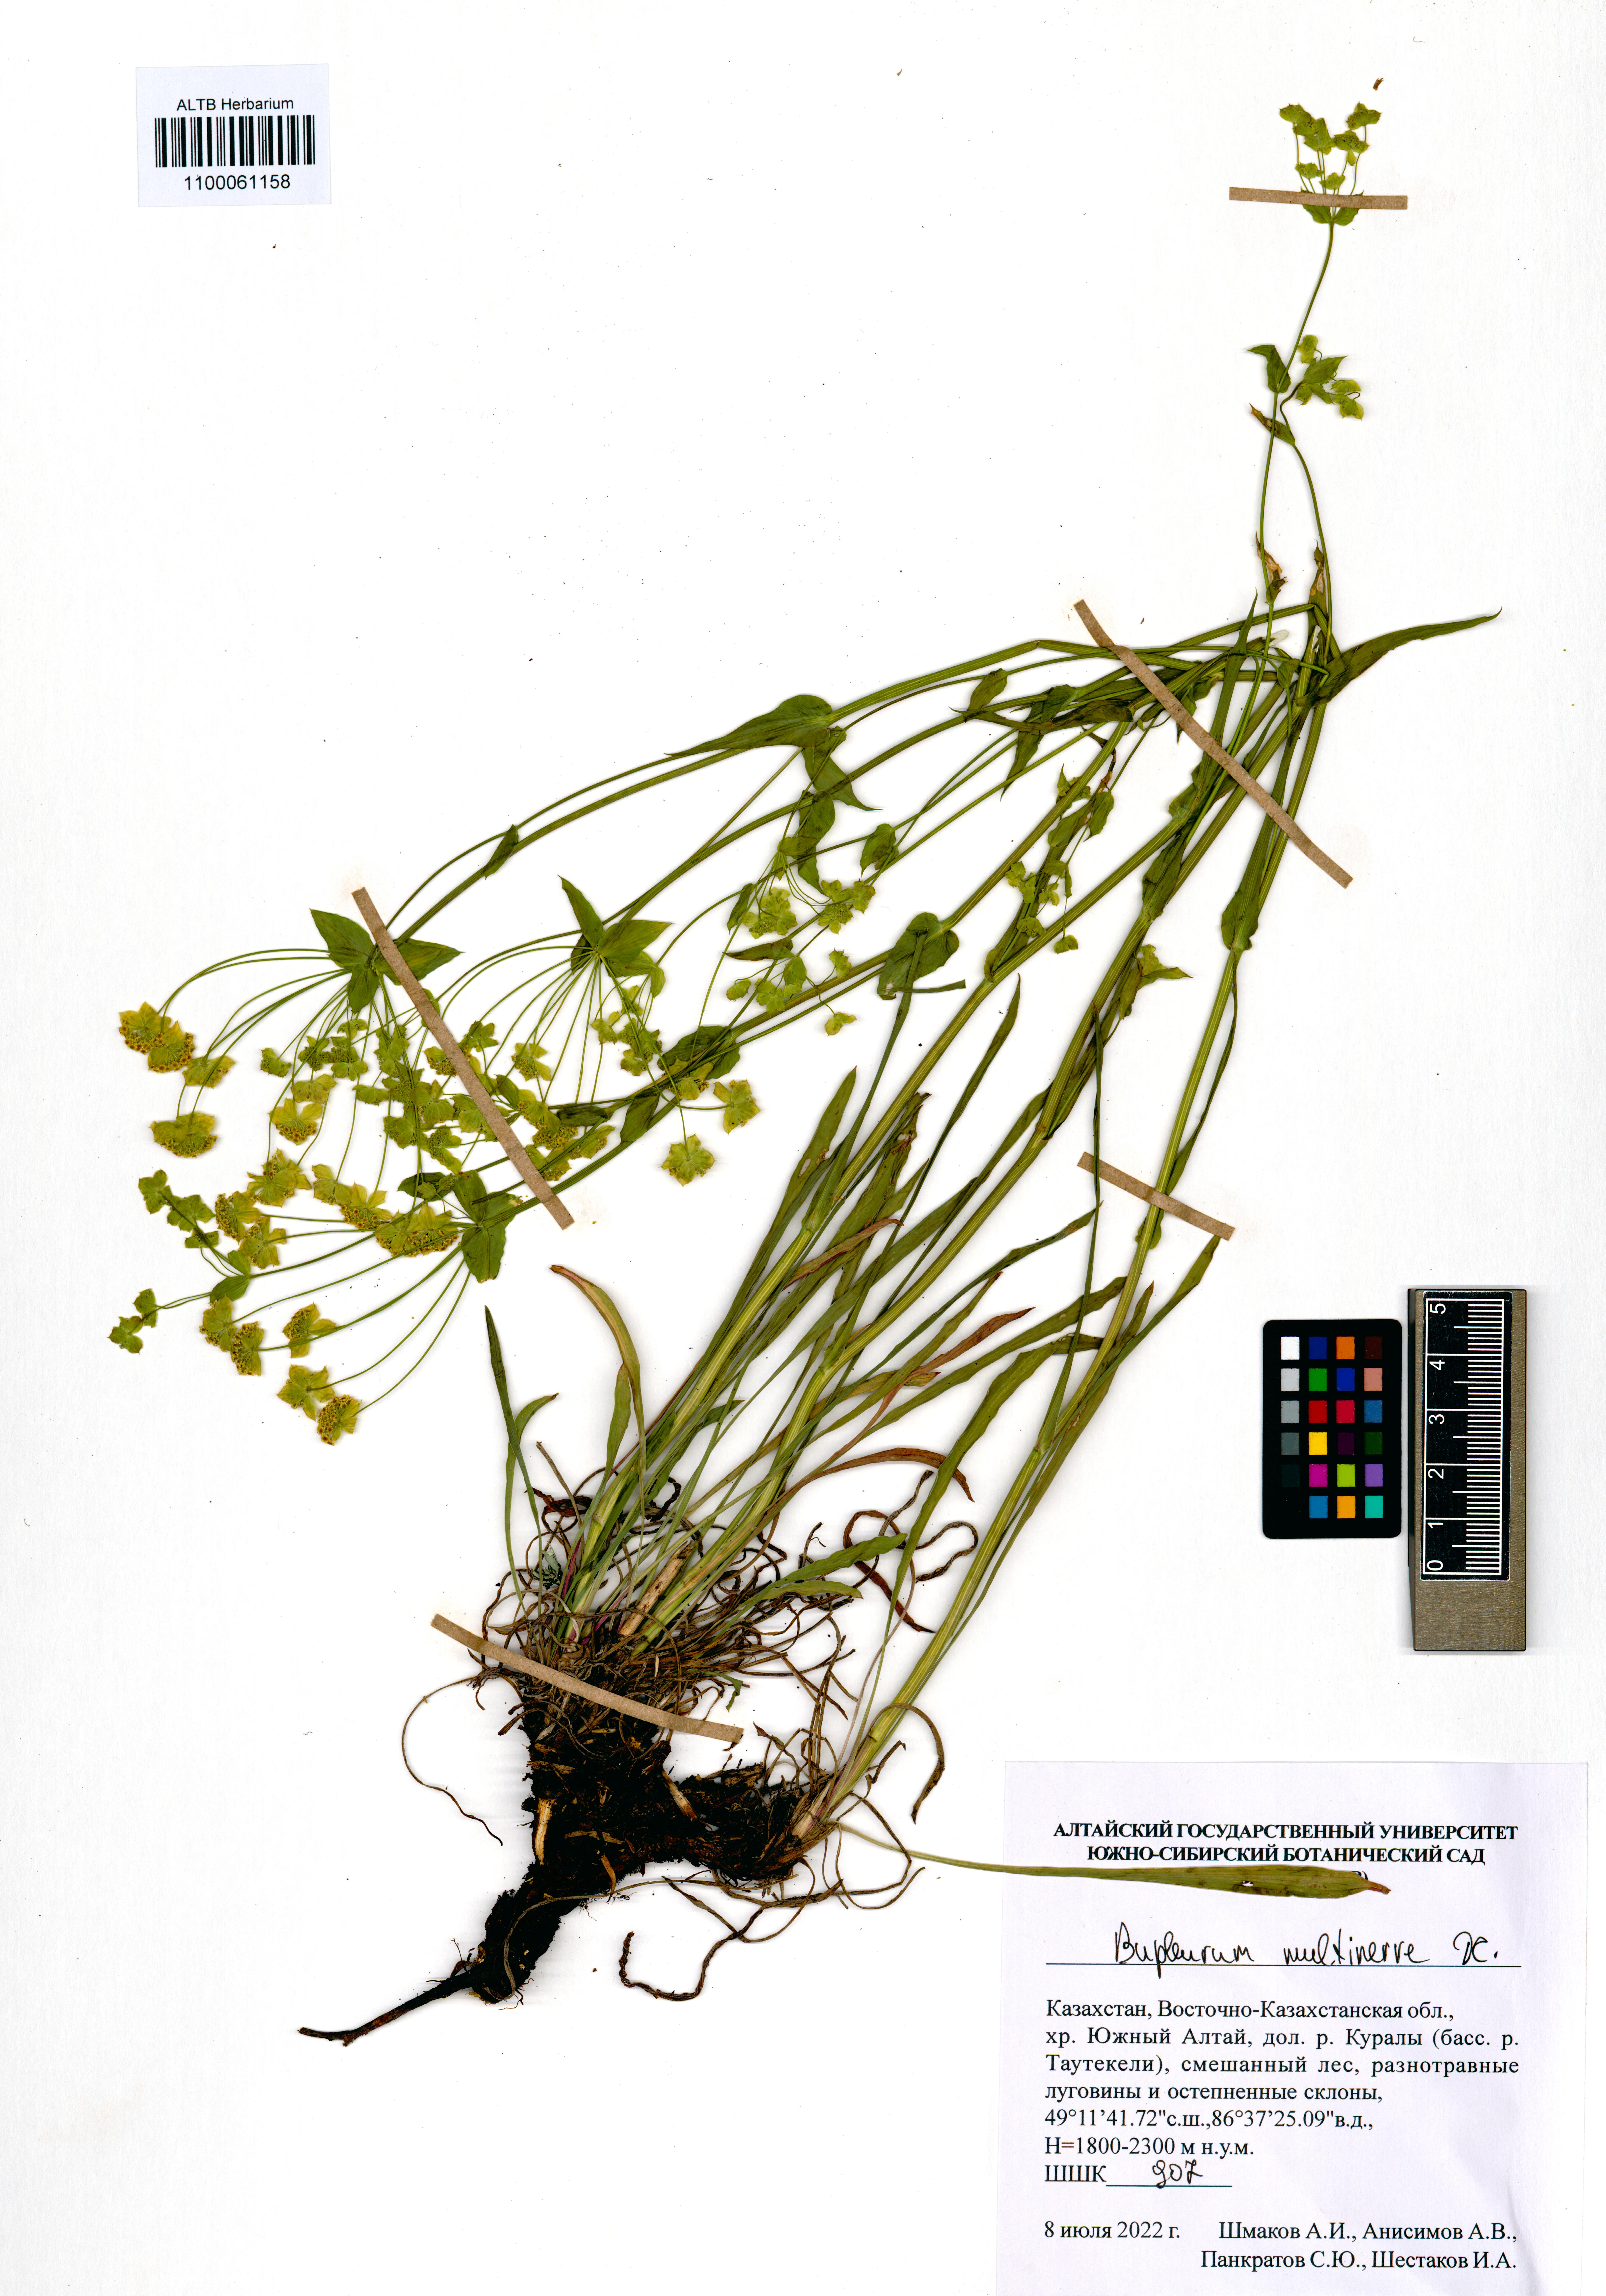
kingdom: Plantae
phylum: Tracheophyta
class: Magnoliopsida
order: Apiales
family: Apiaceae
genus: Bupleurum
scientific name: Bupleurum multinerve
